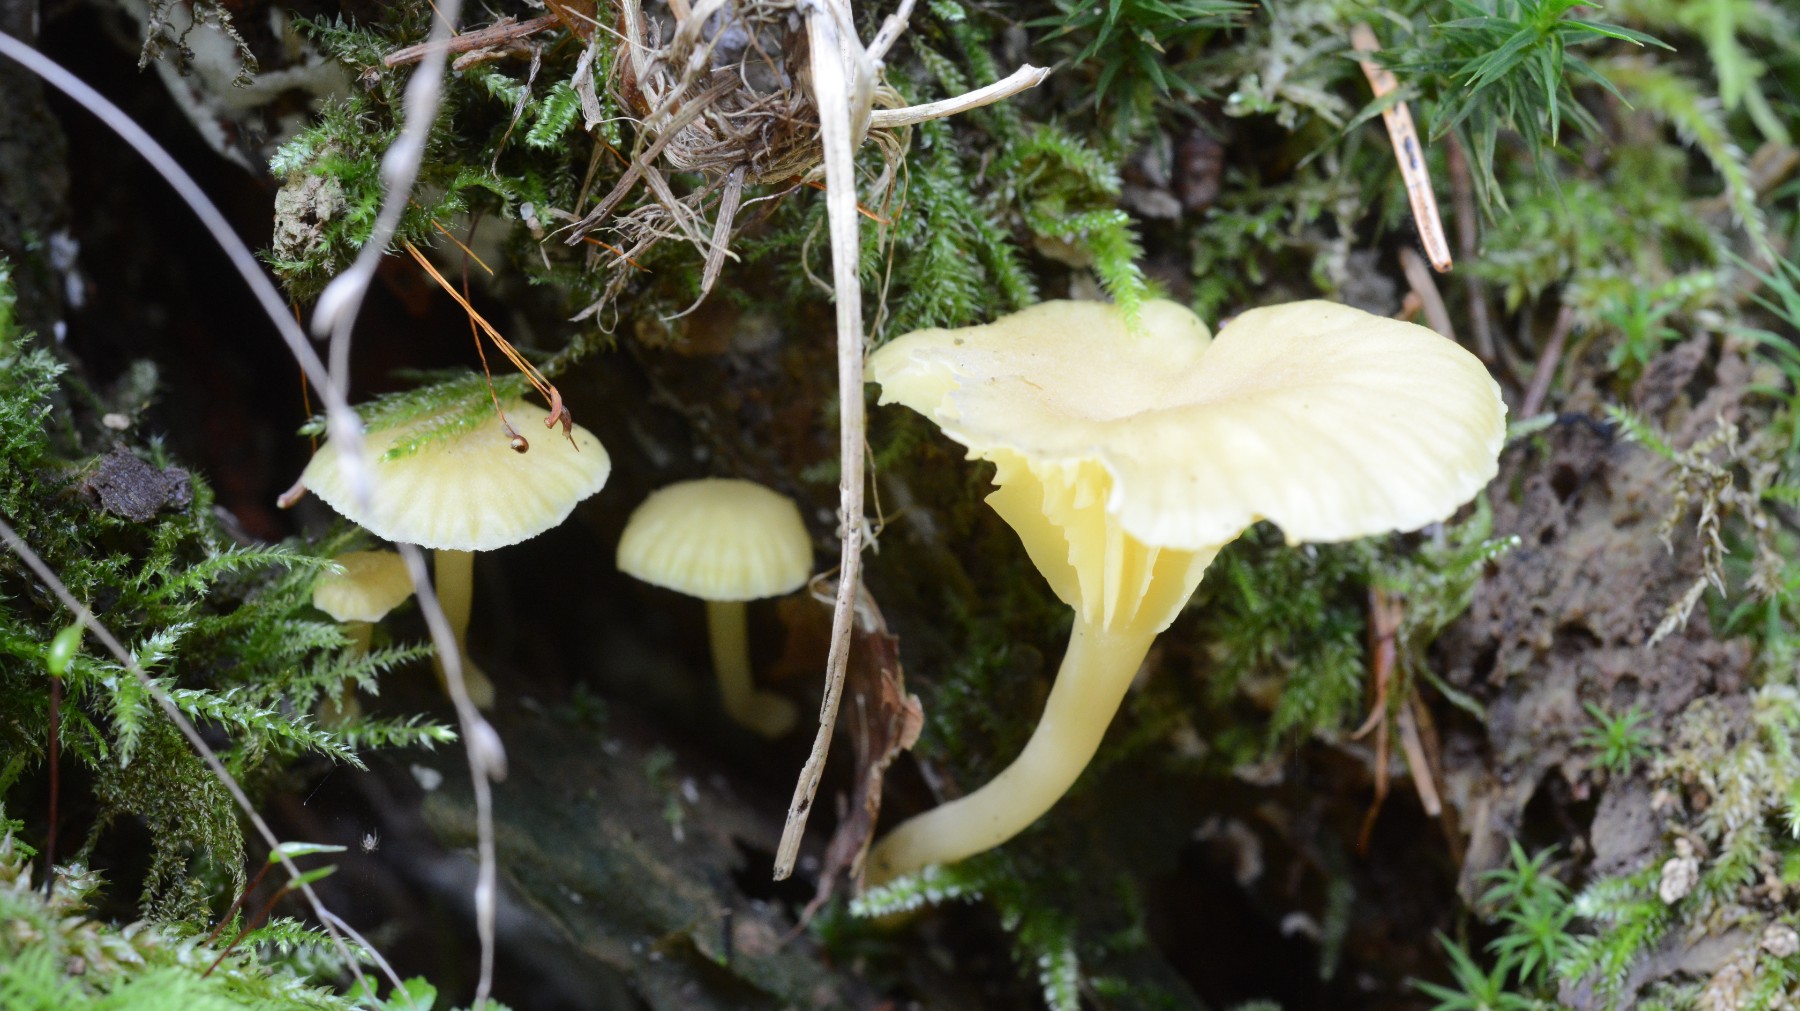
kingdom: Fungi
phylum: Basidiomycota
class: Agaricomycetes
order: Agaricales
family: Hygrophoraceae
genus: Chrysomphalina
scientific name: Chrysomphalina grossula
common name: stød-gyldenblad
